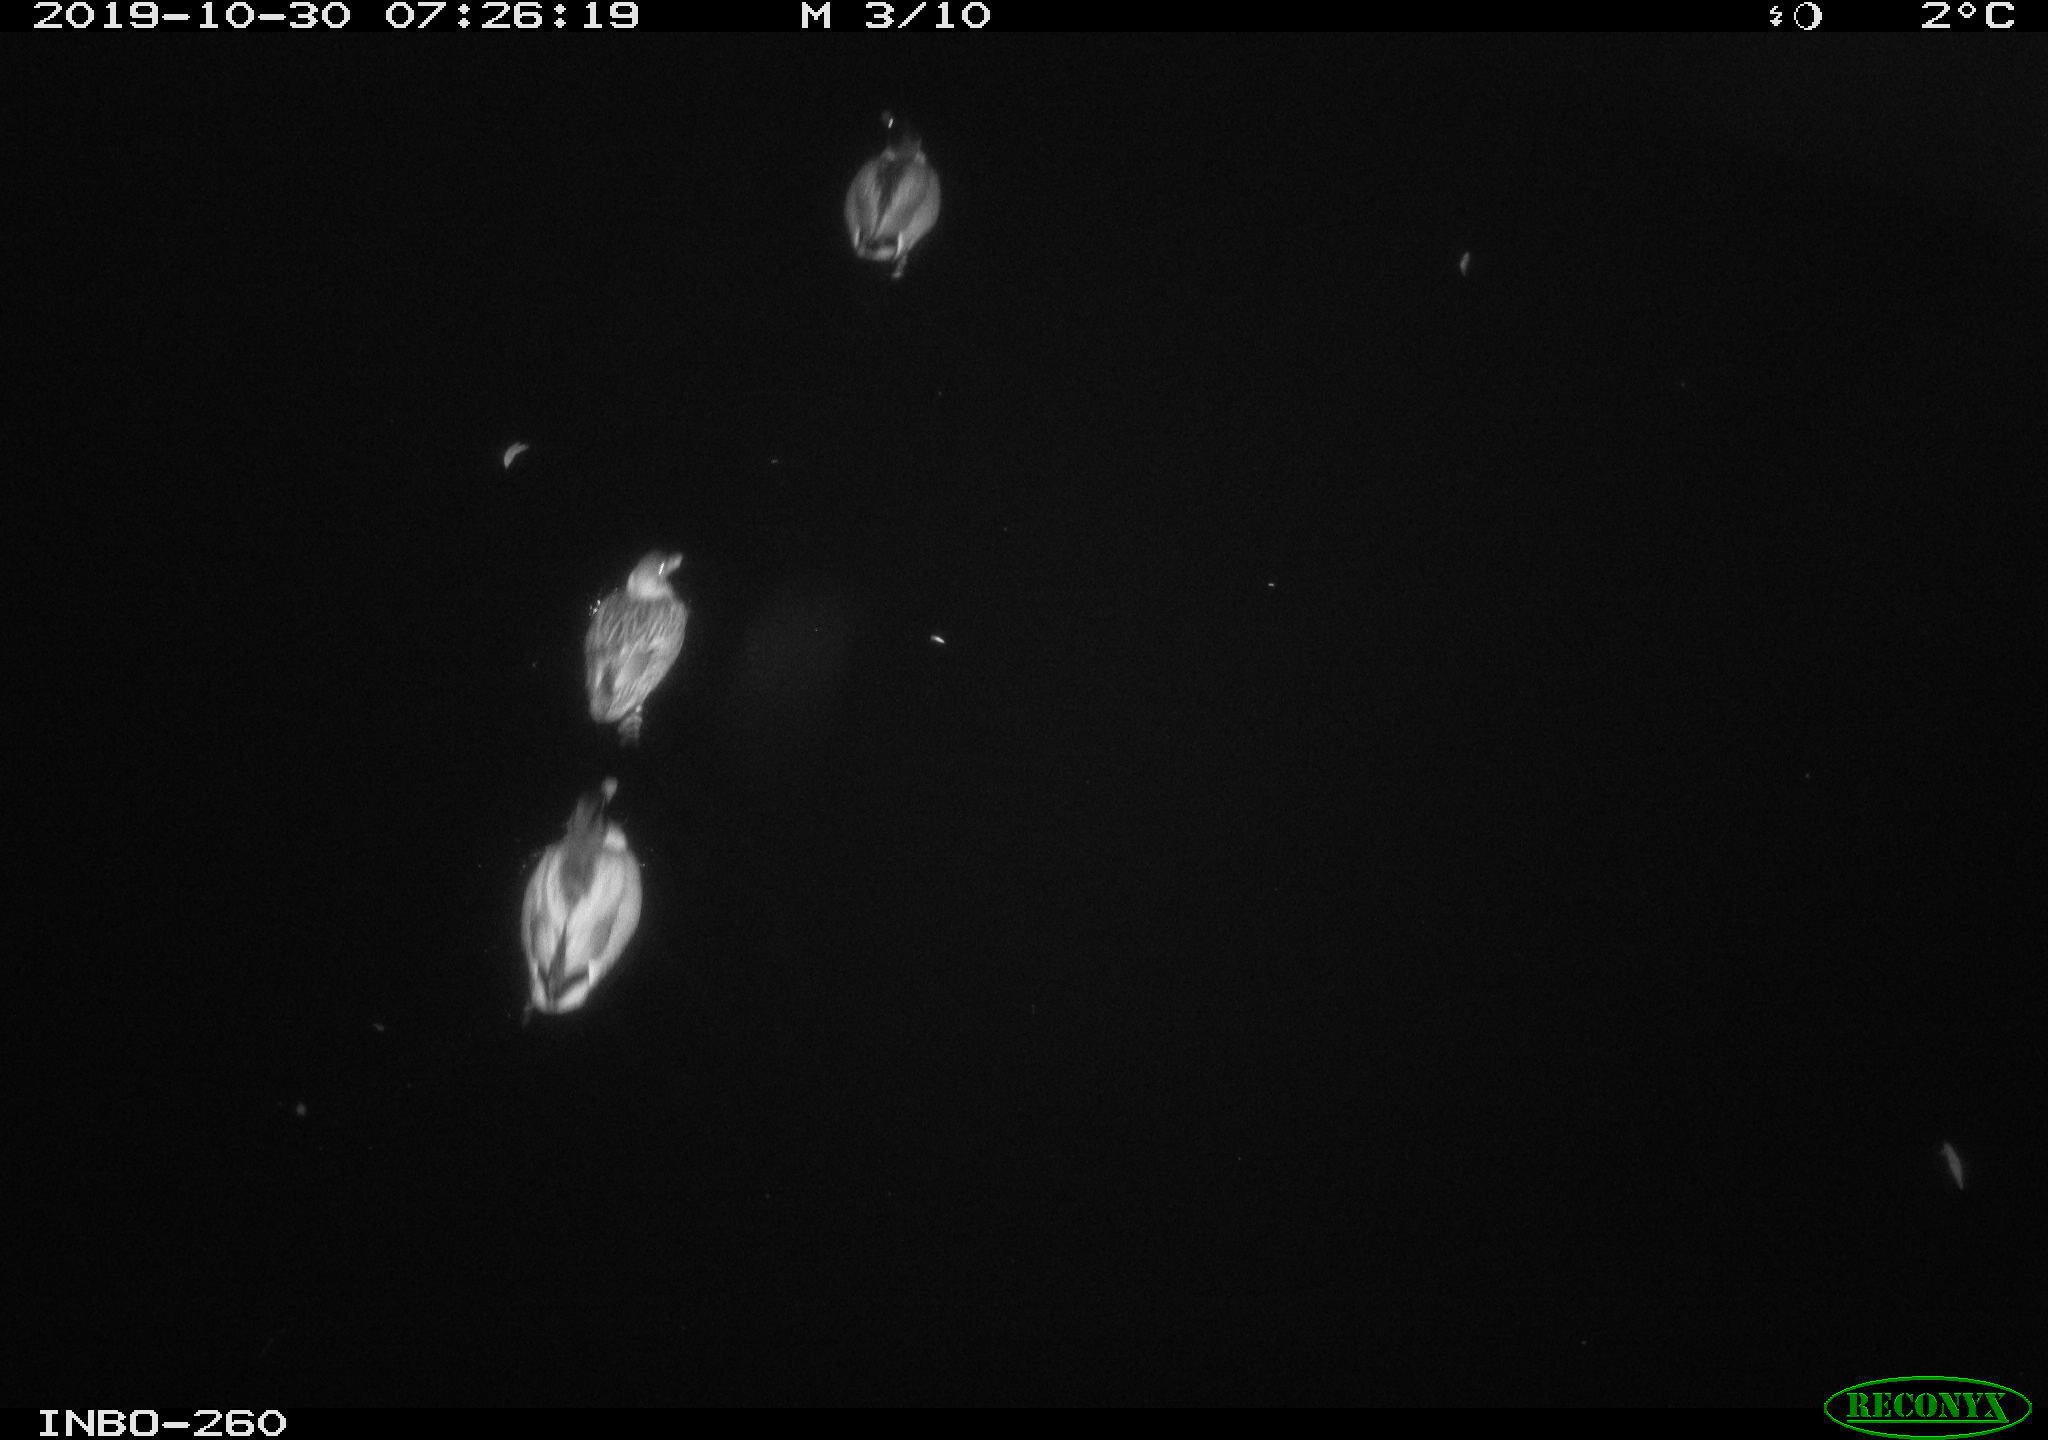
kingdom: Animalia
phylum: Chordata
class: Aves
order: Anseriformes
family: Anatidae
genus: Anas
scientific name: Anas platyrhynchos
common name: Mallard
